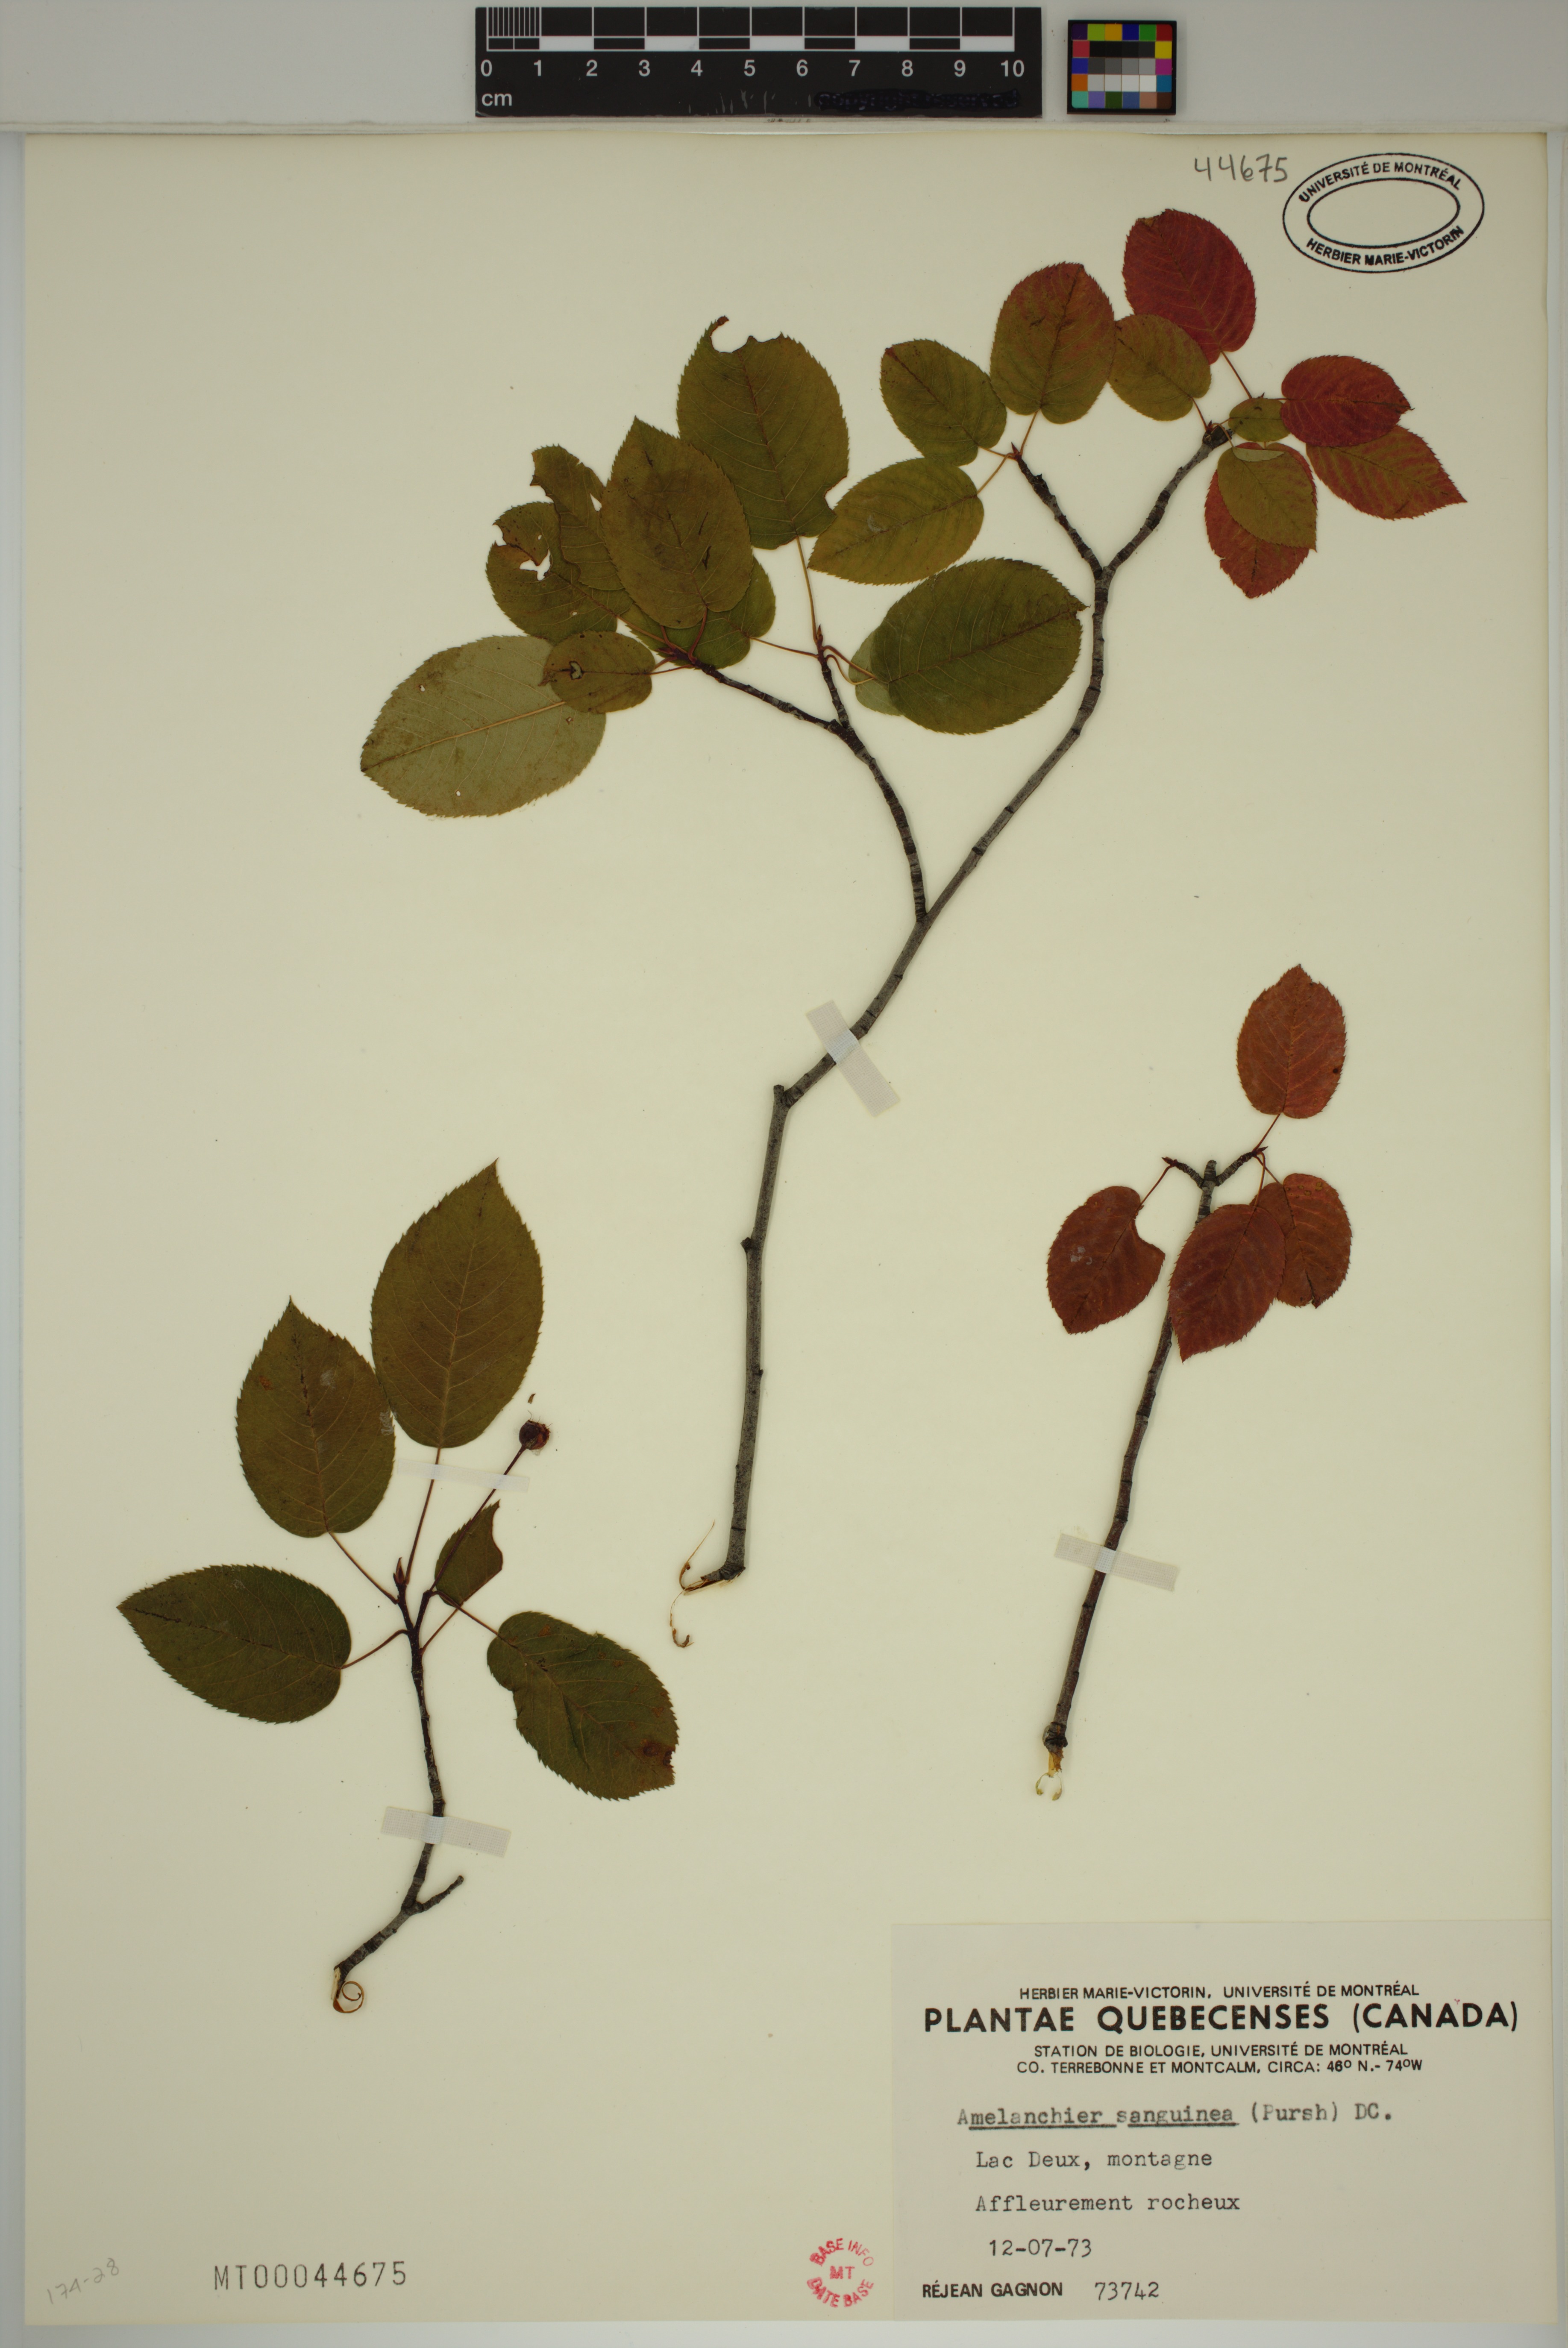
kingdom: Plantae
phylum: Tracheophyta
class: Magnoliopsida
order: Rosales
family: Rosaceae
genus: Amelanchier
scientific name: Amelanchier sanguinea
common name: Huron serviceberry
